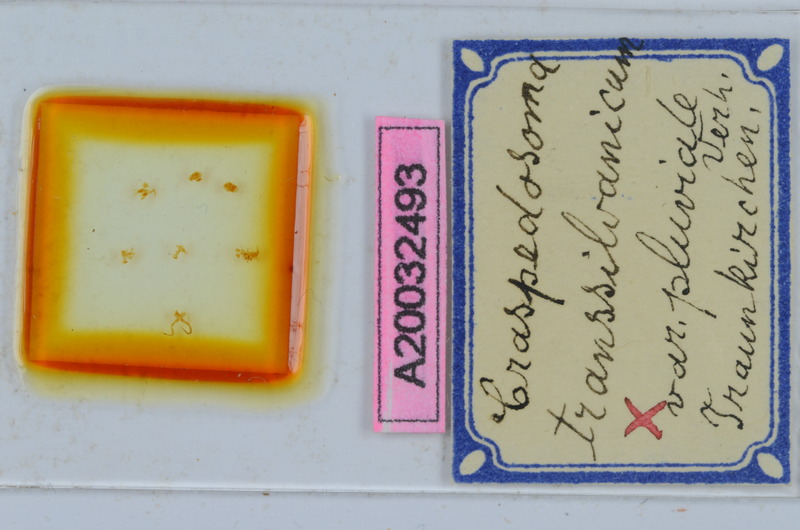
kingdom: Animalia
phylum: Arthropoda
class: Diplopoda
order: Chordeumatida
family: Craspedosomatidae
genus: Craspedosoma
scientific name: Craspedosoma rawlinsii
